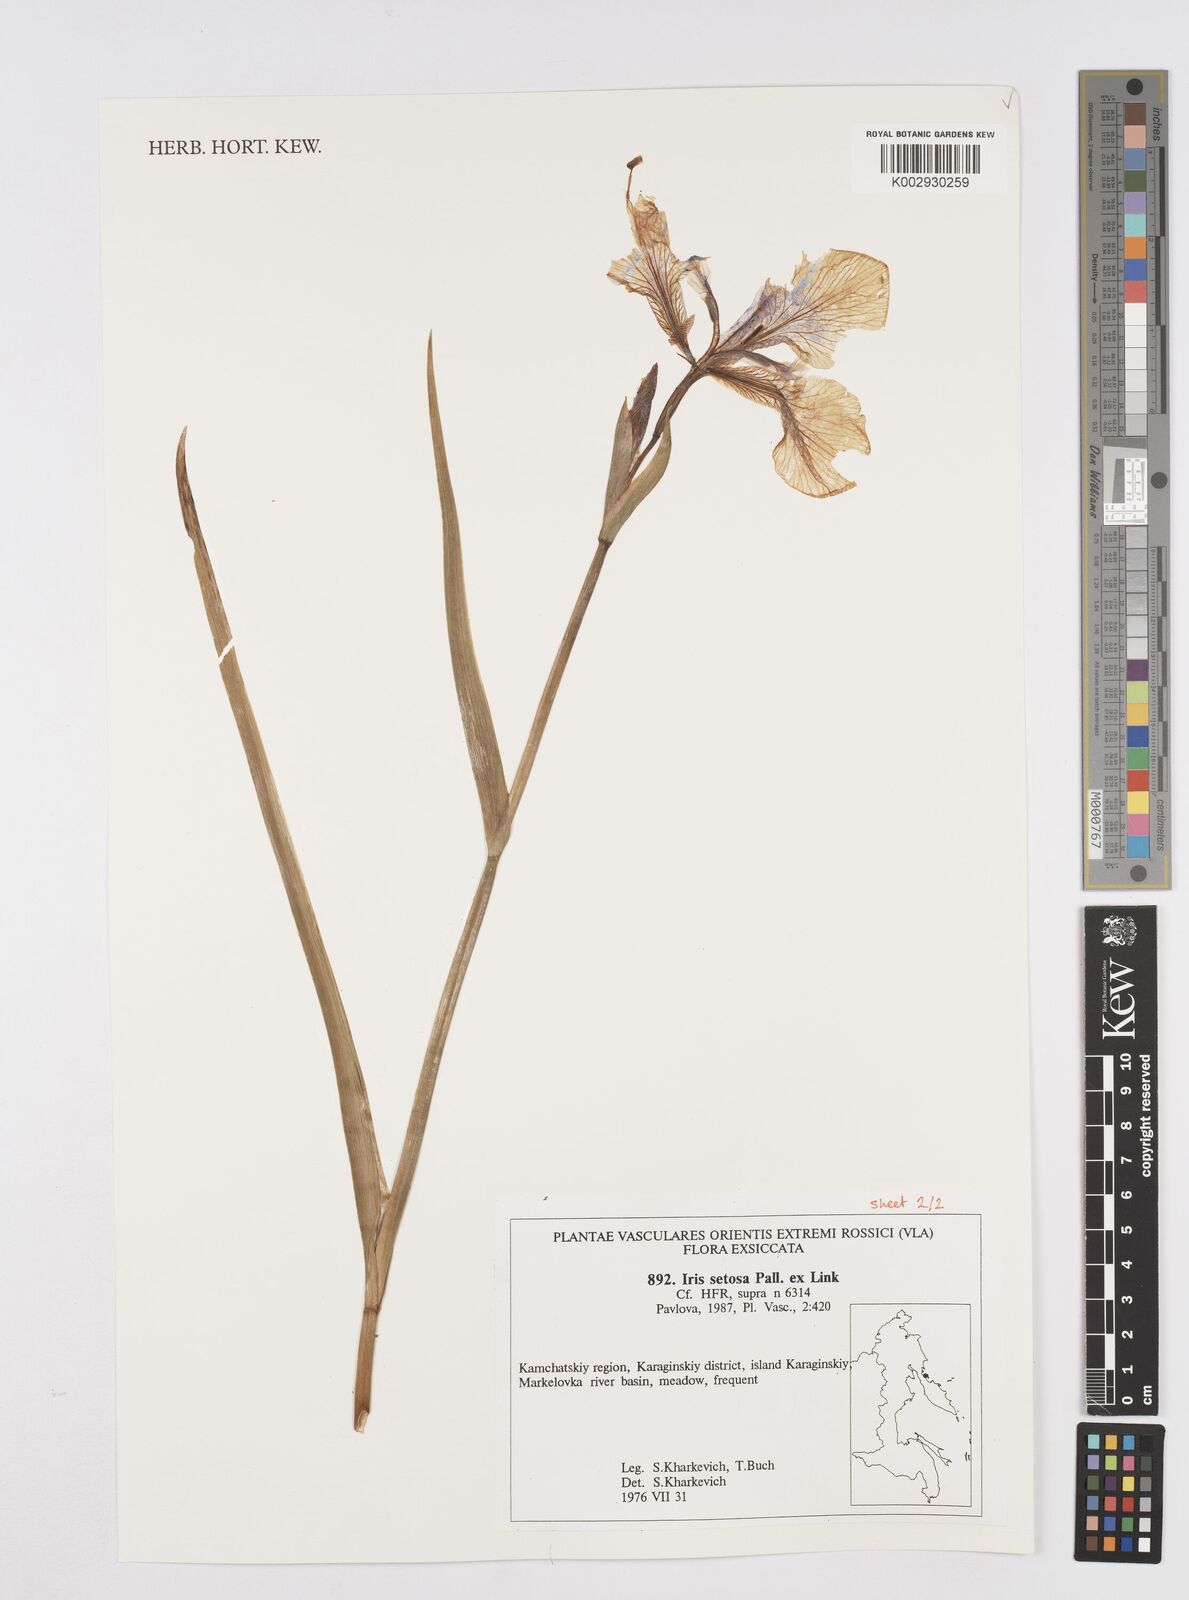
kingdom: Plantae
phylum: Tracheophyta
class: Liliopsida
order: Asparagales
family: Iridaceae
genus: Iris
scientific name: Iris setosa
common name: Arctic blue flag
